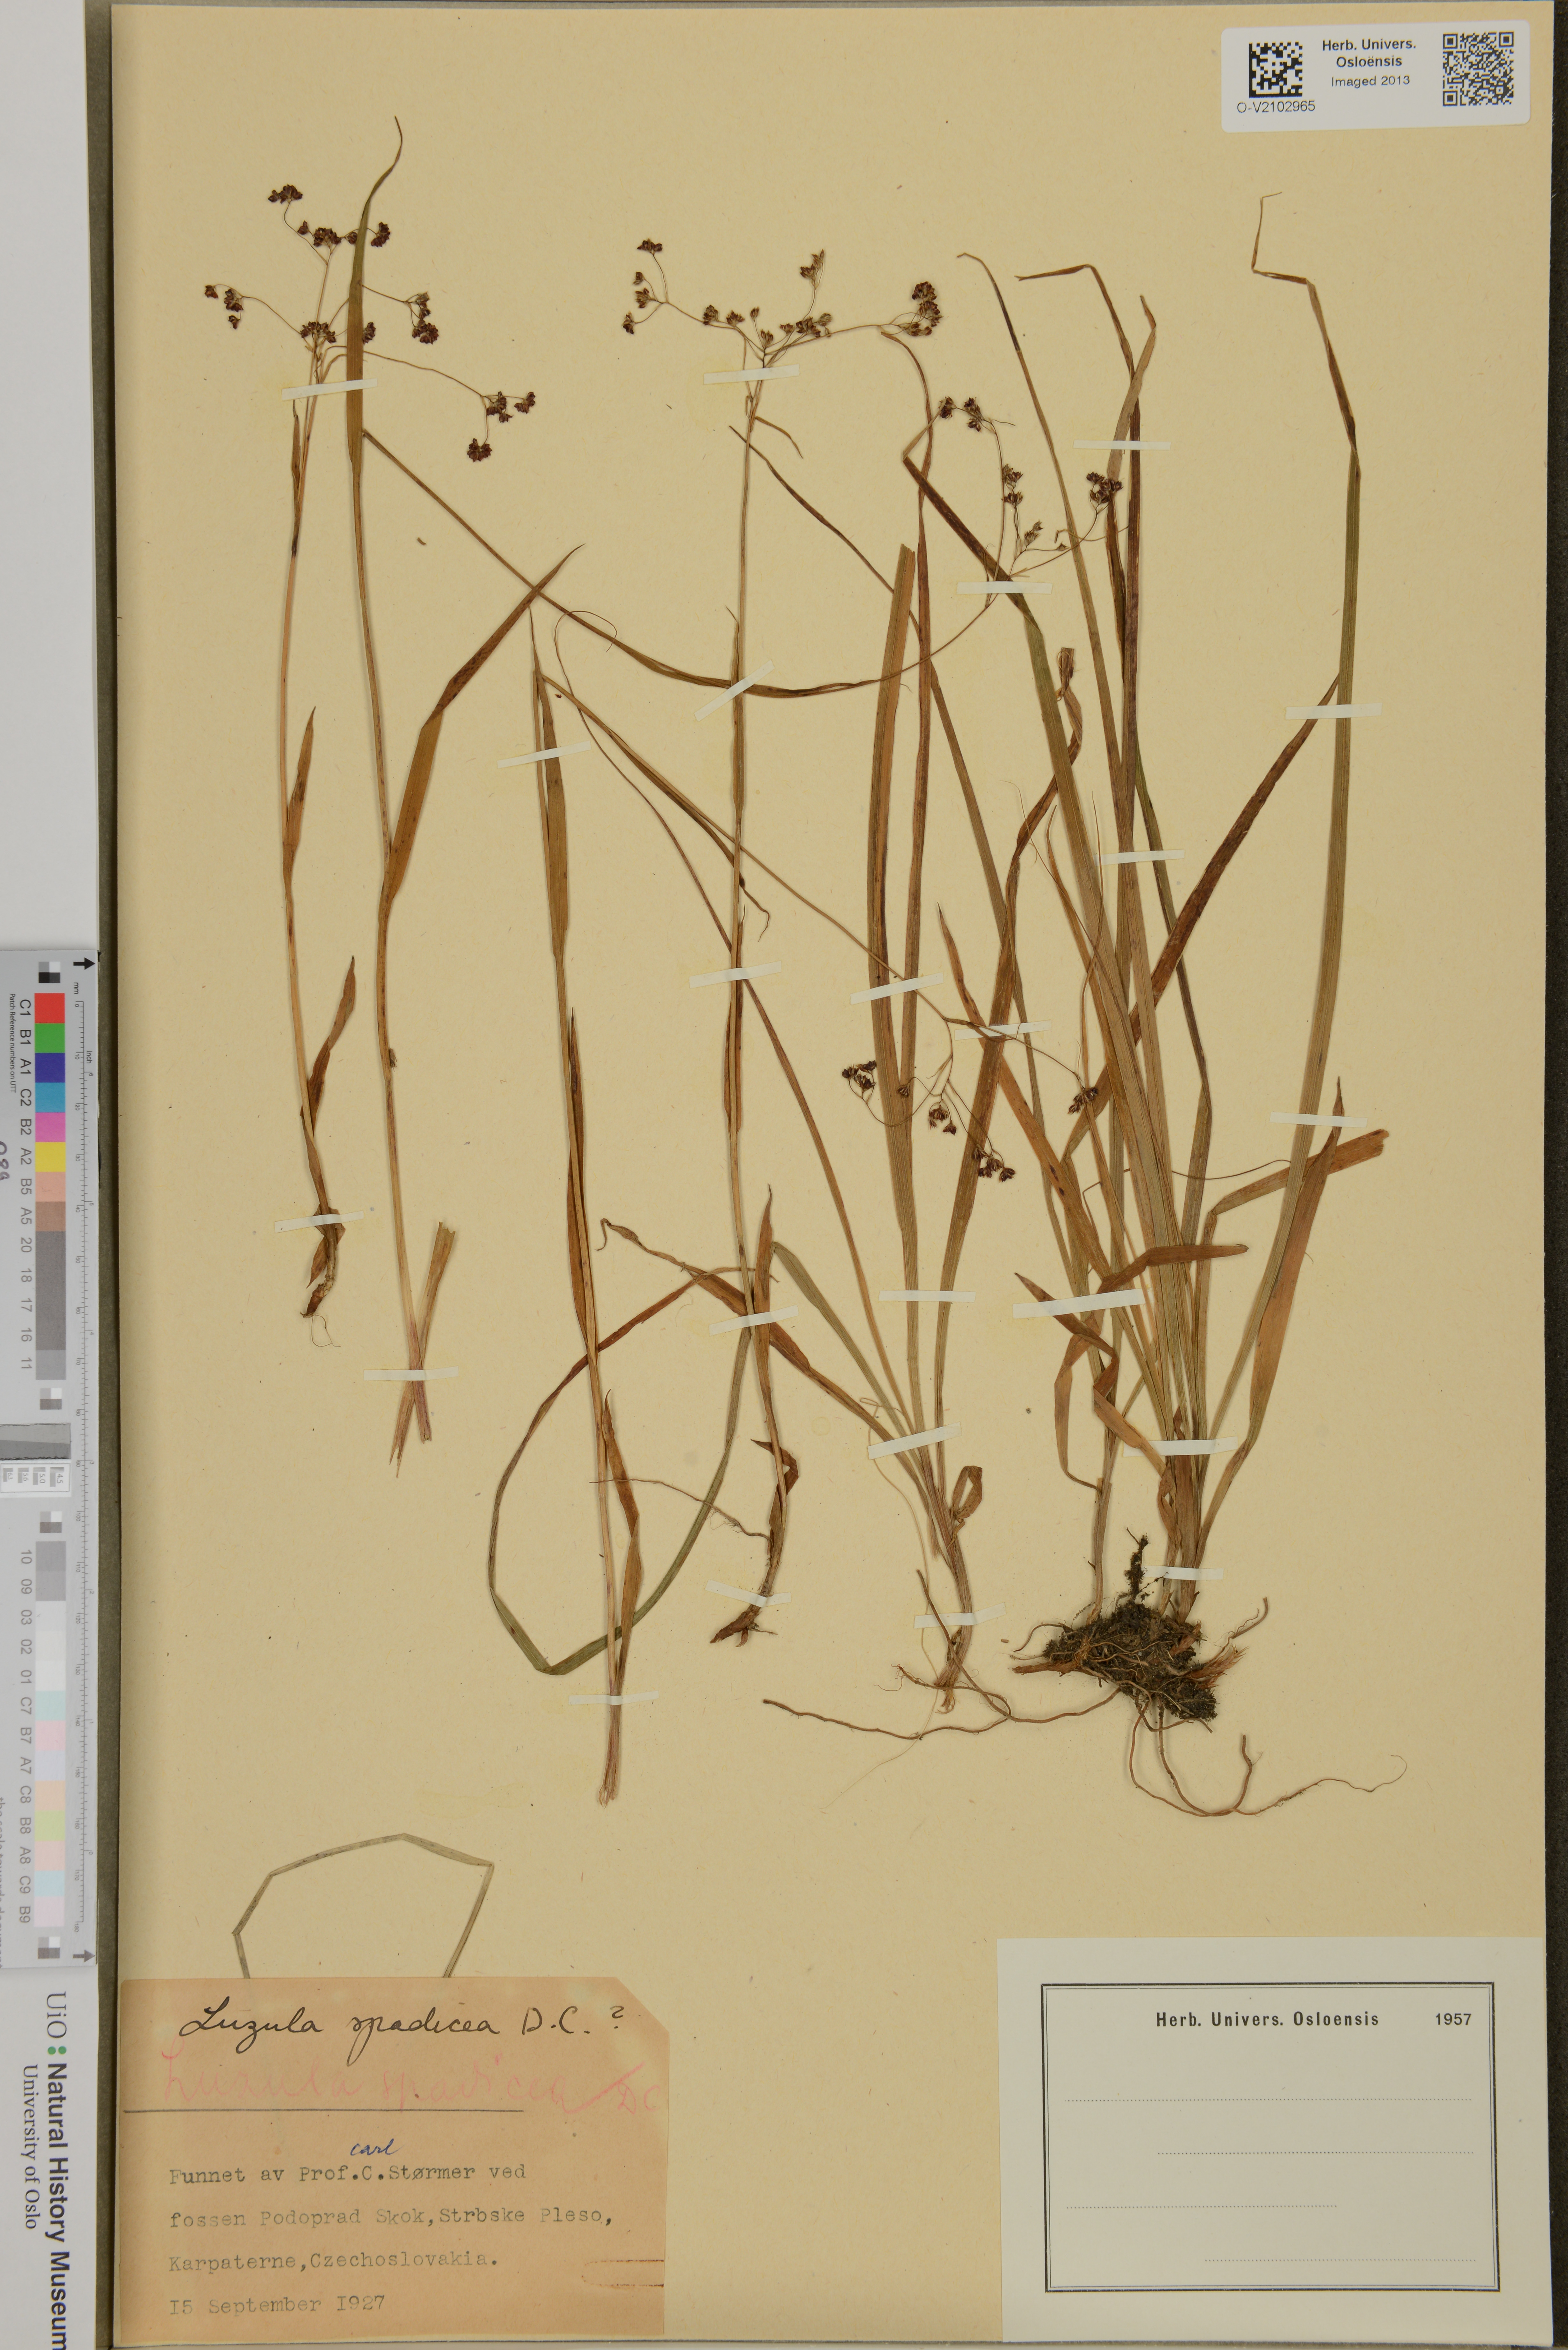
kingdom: Plantae
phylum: Tracheophyta
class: Liliopsida
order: Poales
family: Juncaceae
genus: Luzula
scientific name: Luzula alpinopilosa
